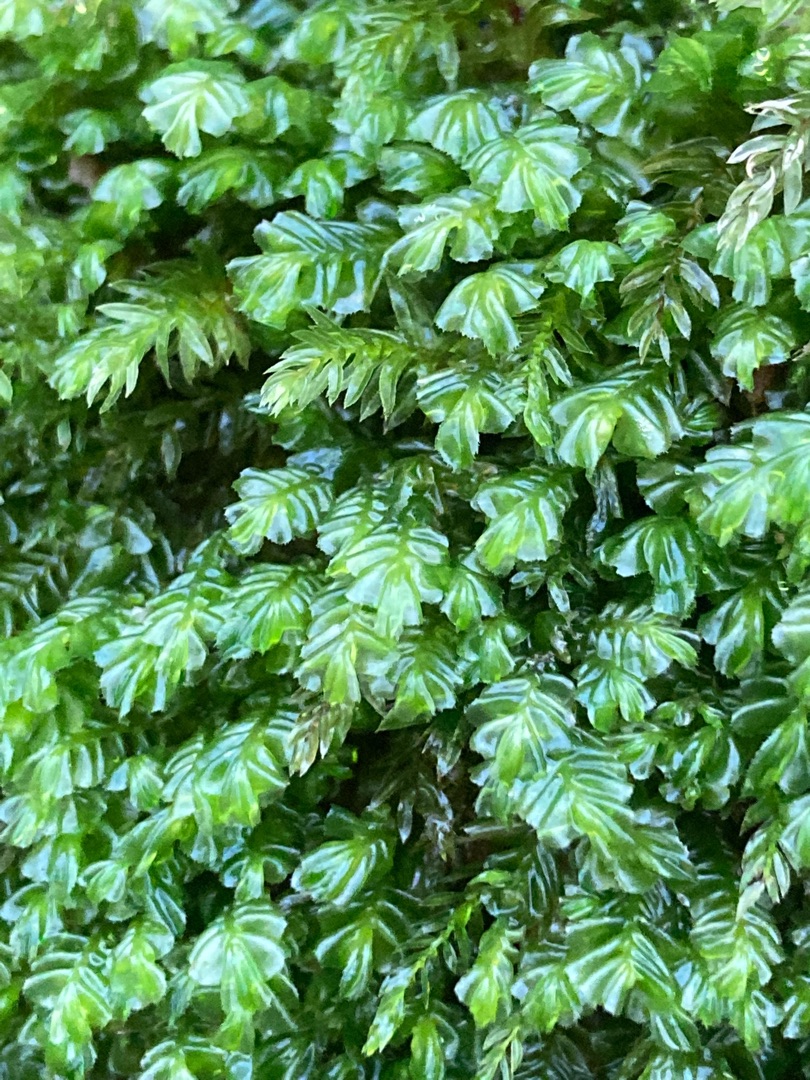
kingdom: Plantae
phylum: Marchantiophyta
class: Jungermanniopsida
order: Jungermanniales
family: Plagiochilaceae
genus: Plagiochila
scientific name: Plagiochila asplenioides
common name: Radeløv-hindeblad (underart)
